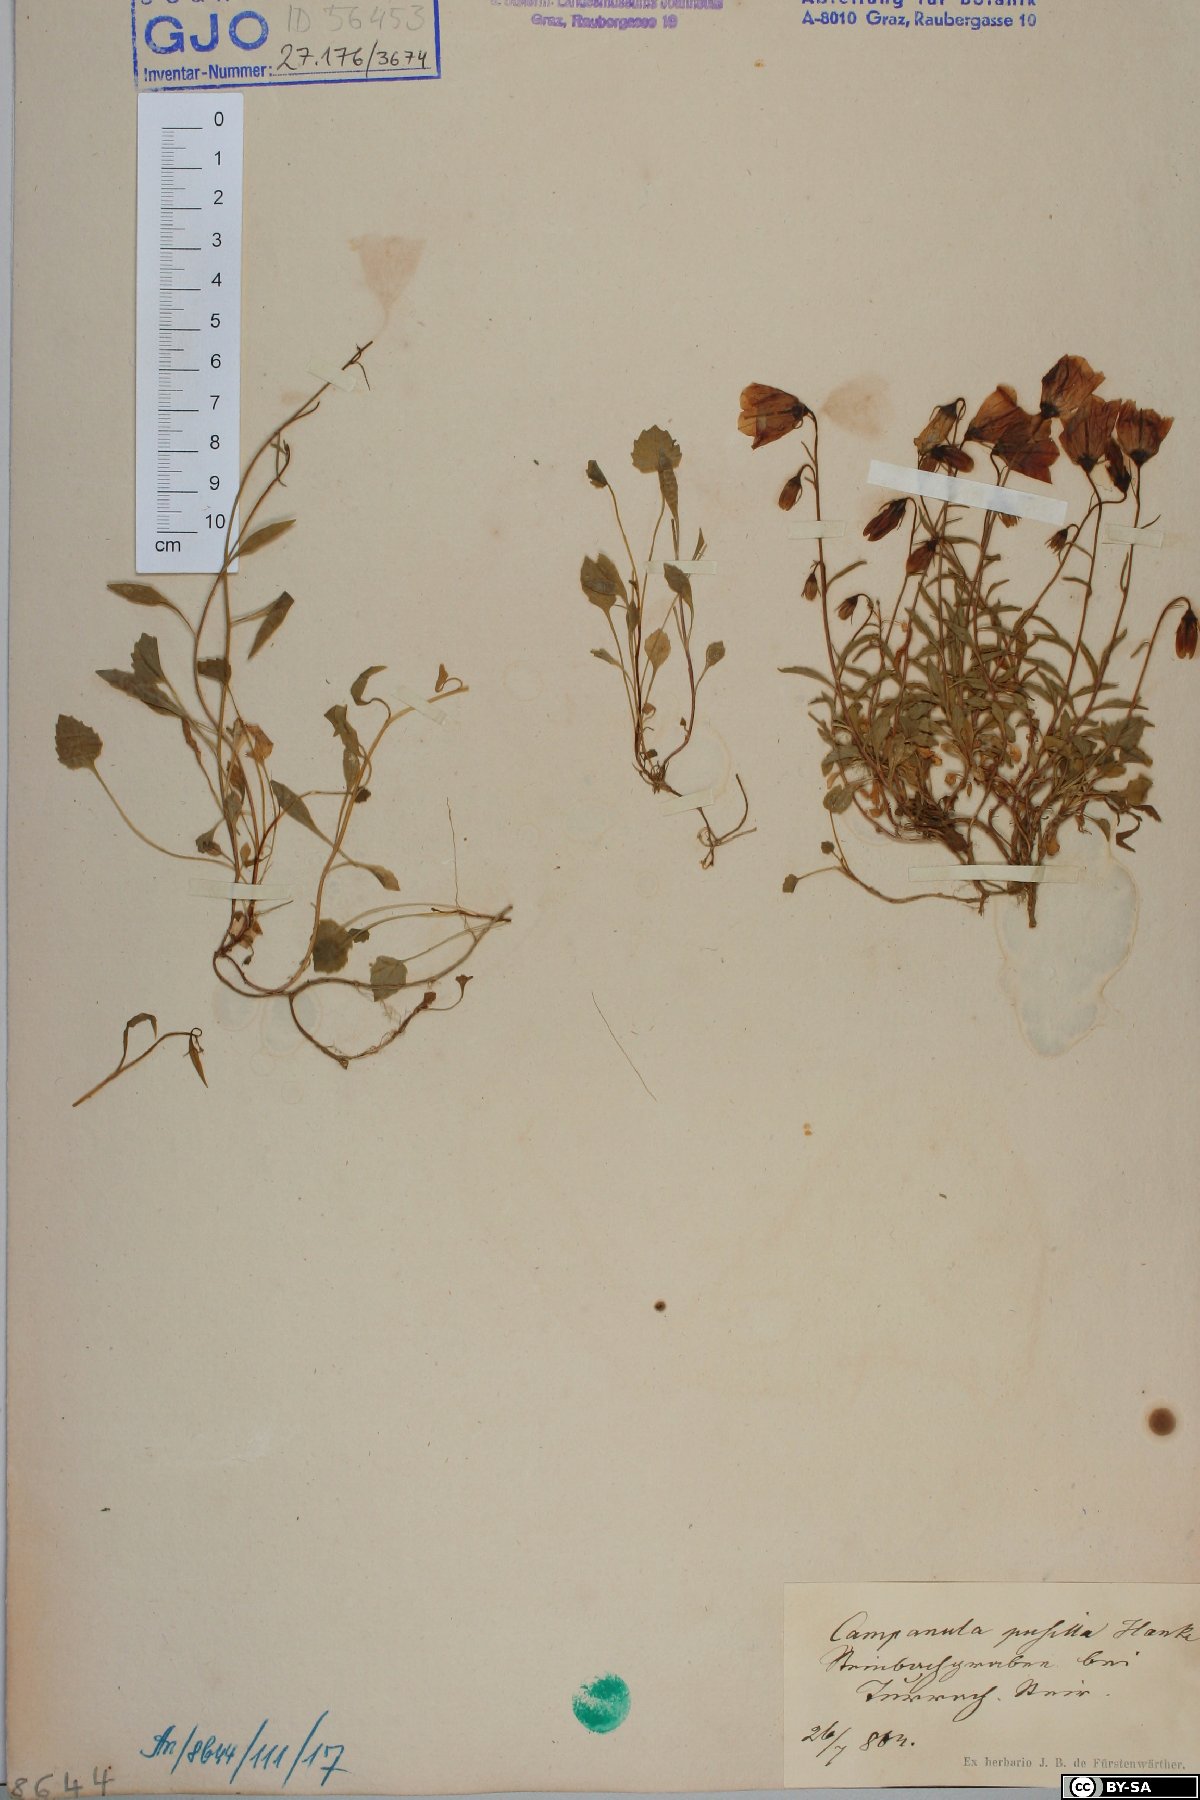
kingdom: Plantae
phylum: Tracheophyta
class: Magnoliopsida
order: Asterales
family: Campanulaceae
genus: Campanula
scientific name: Campanula cochleariifolia
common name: Fairies'-thimbles
